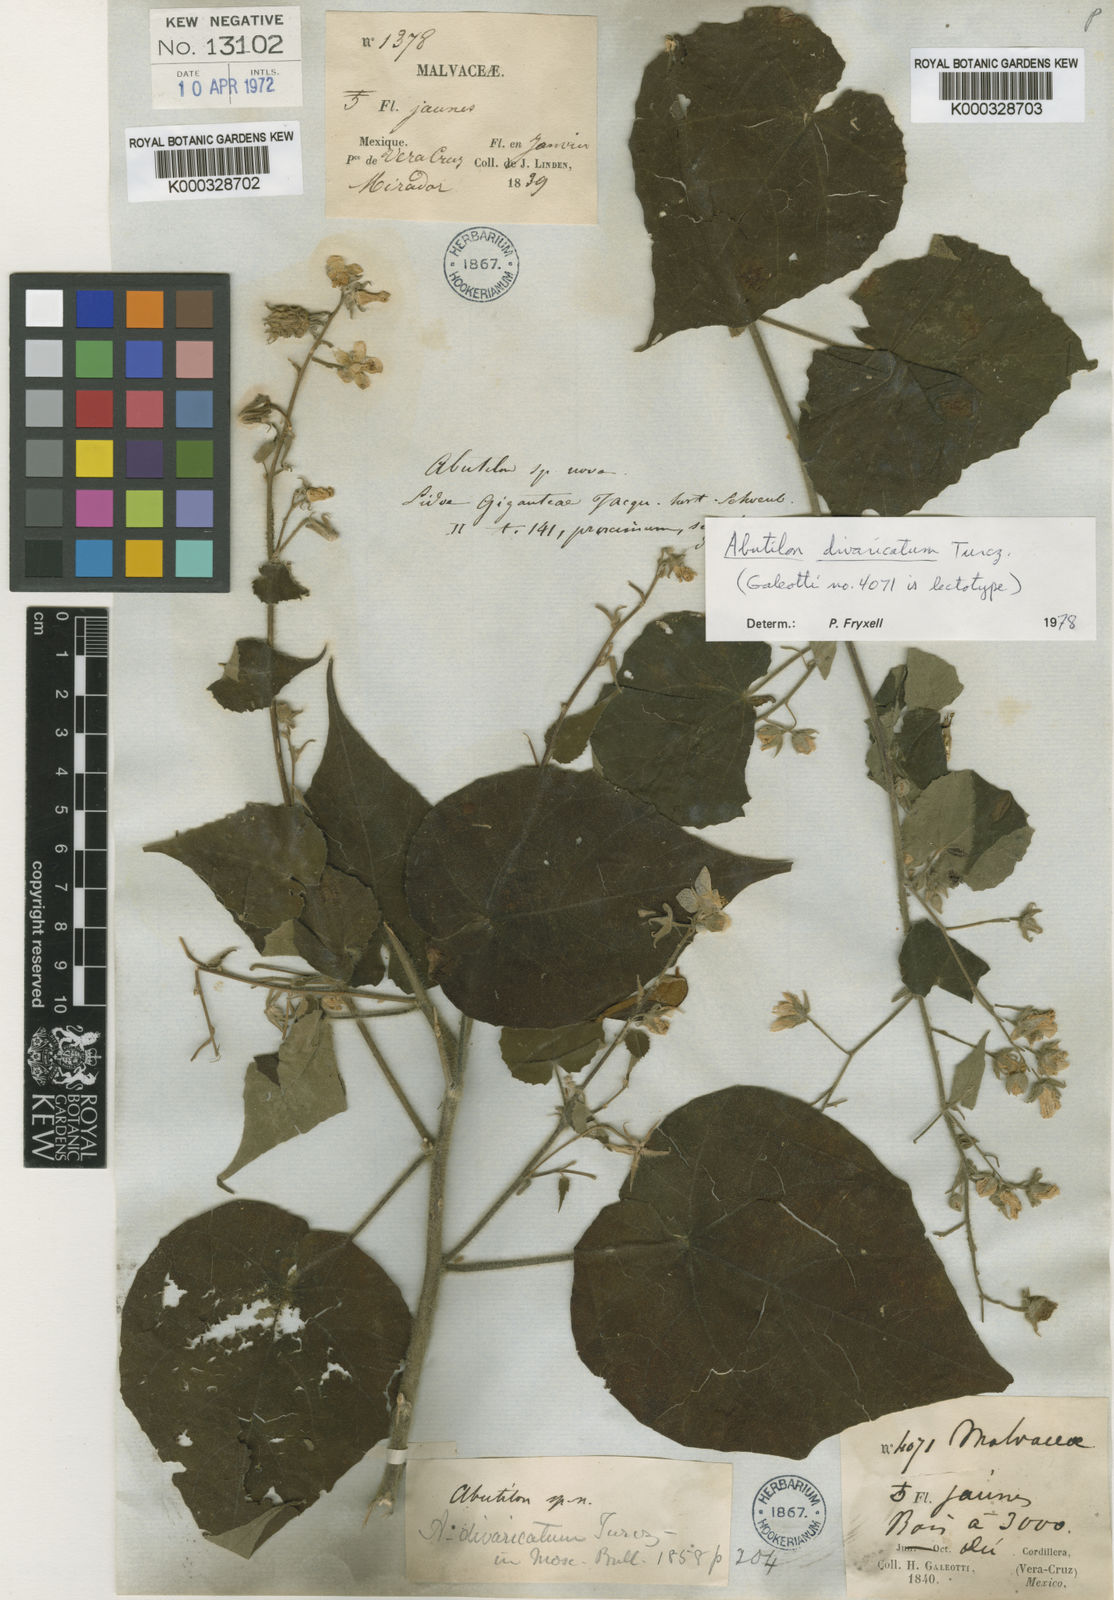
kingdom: Plantae
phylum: Tracheophyta
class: Magnoliopsida
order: Malvales
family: Malvaceae
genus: Abutilon
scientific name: Abutilon giganteum
